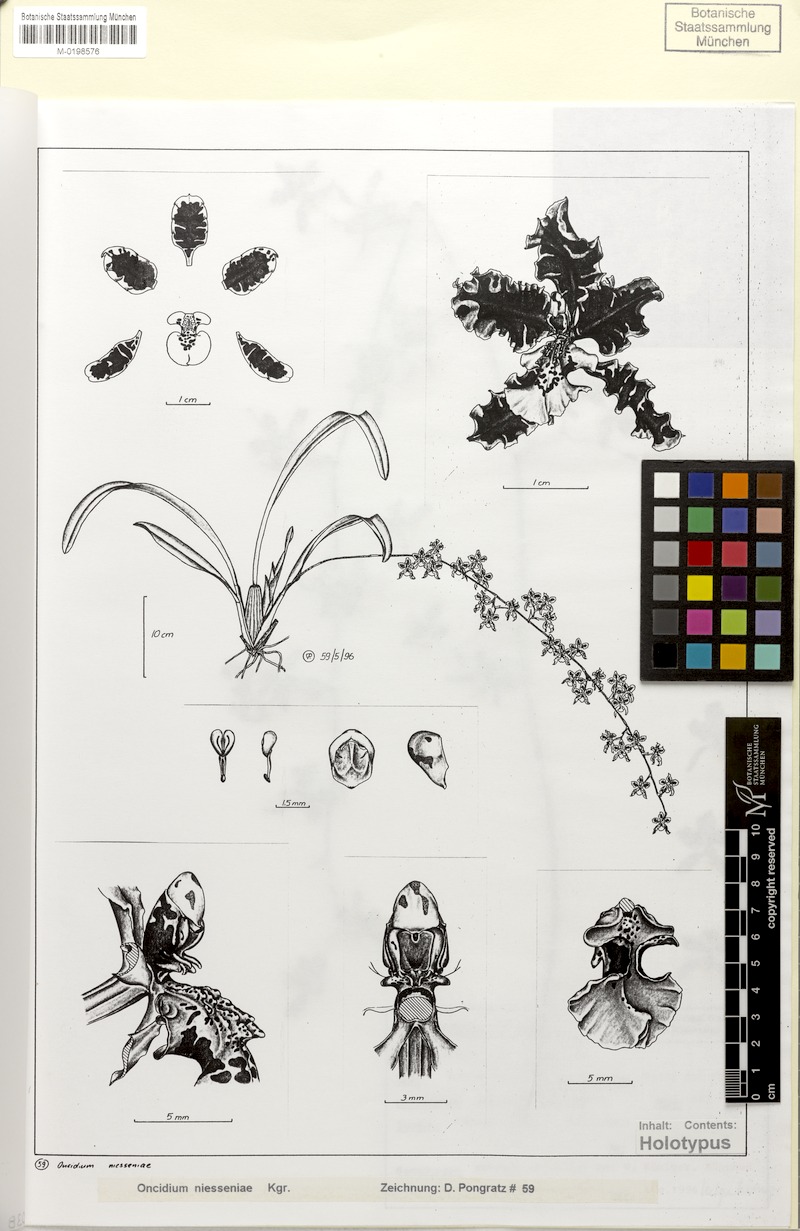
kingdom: Plantae
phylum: Tracheophyta
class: Liliopsida
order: Asparagales
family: Orchidaceae
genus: Oncidium
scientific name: Oncidium niesseniae
